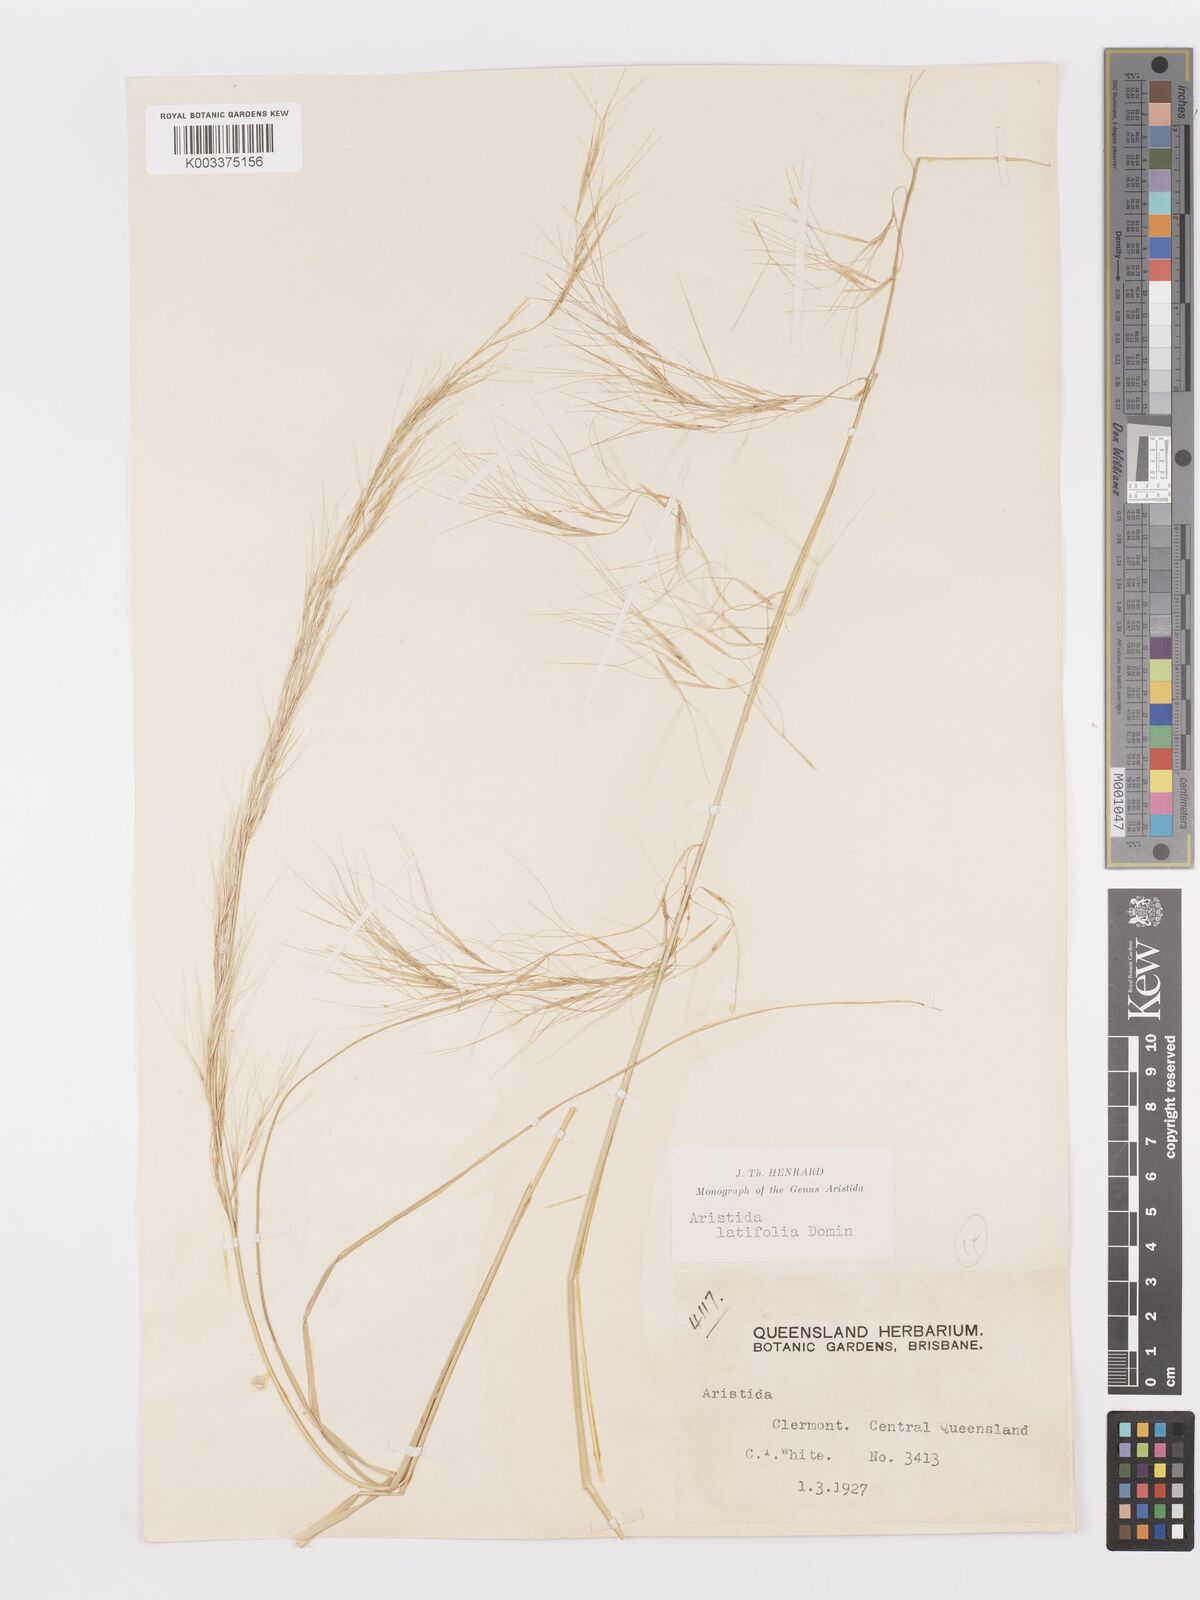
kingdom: Plantae
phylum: Tracheophyta
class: Liliopsida
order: Poales
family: Poaceae
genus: Aristida
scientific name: Aristida latifolia
